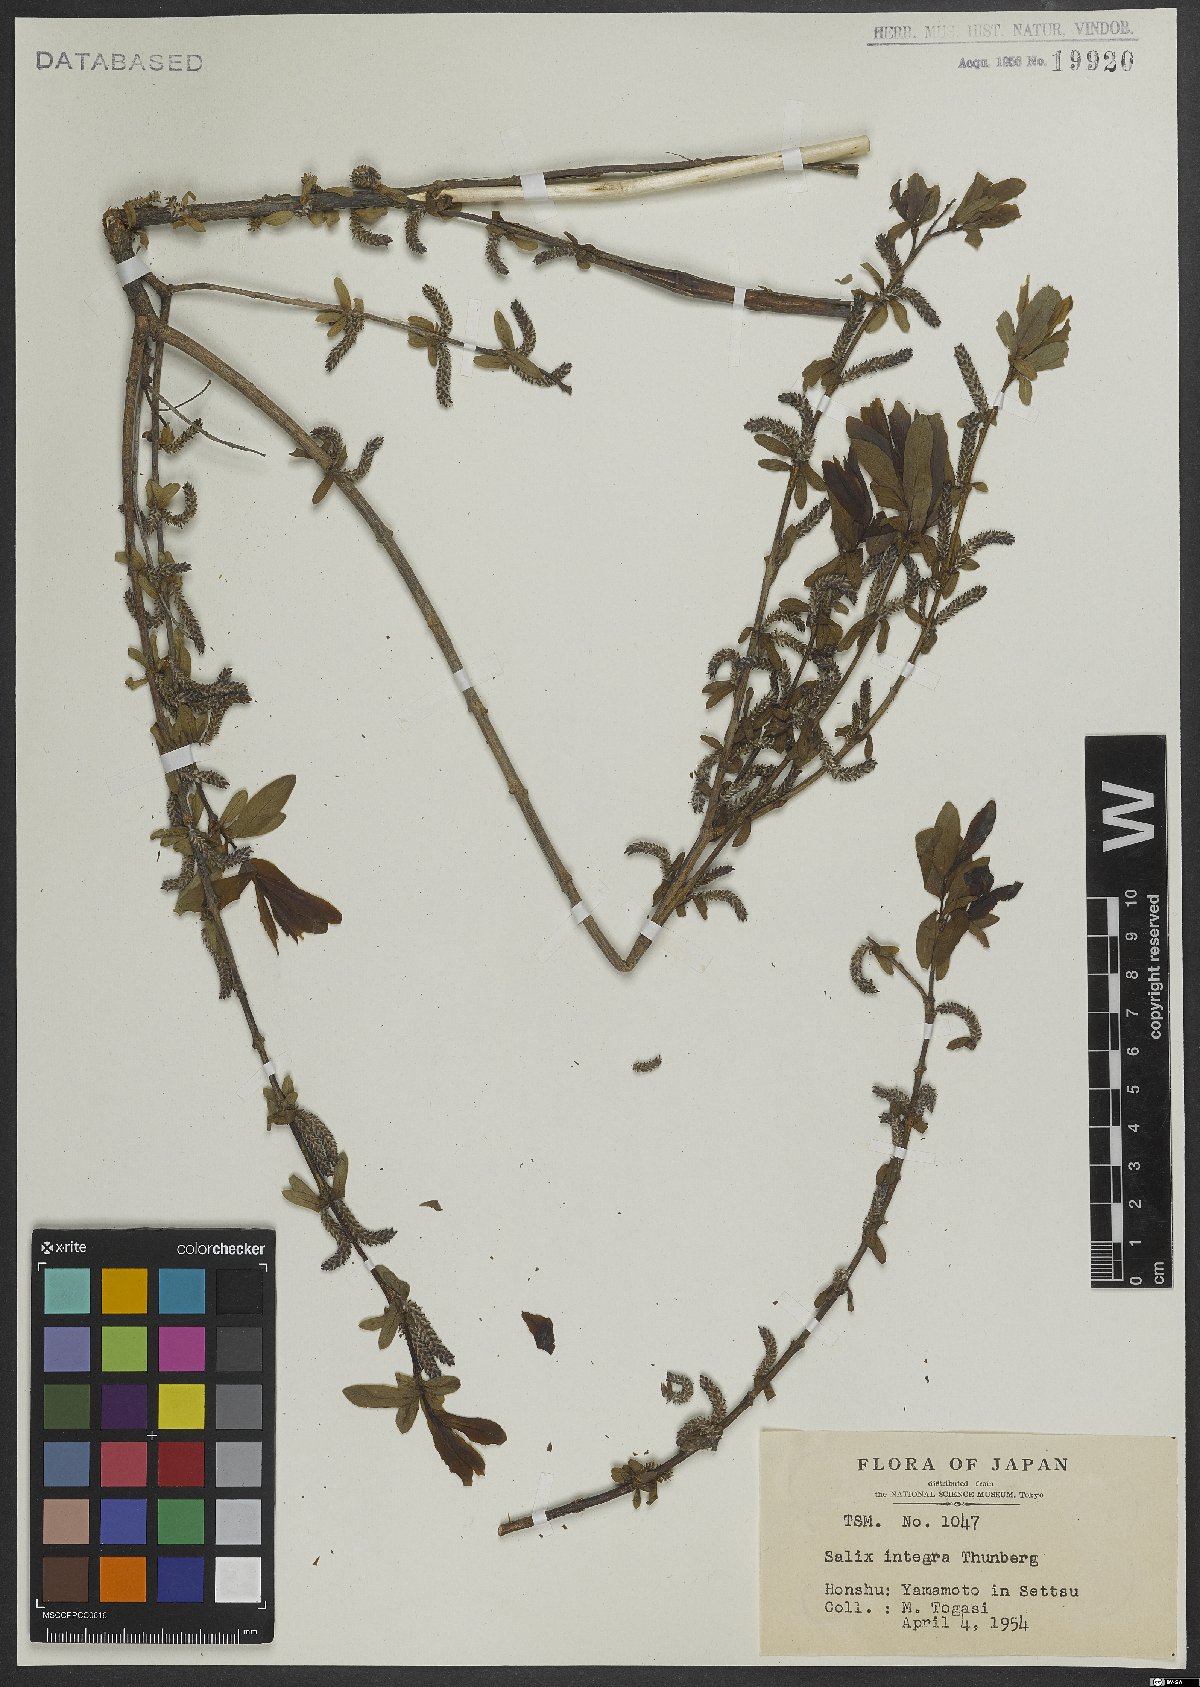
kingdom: Plantae
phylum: Tracheophyta
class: Magnoliopsida
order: Malpighiales
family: Salicaceae
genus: Salix
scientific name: Salix integra
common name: Dappled willow
